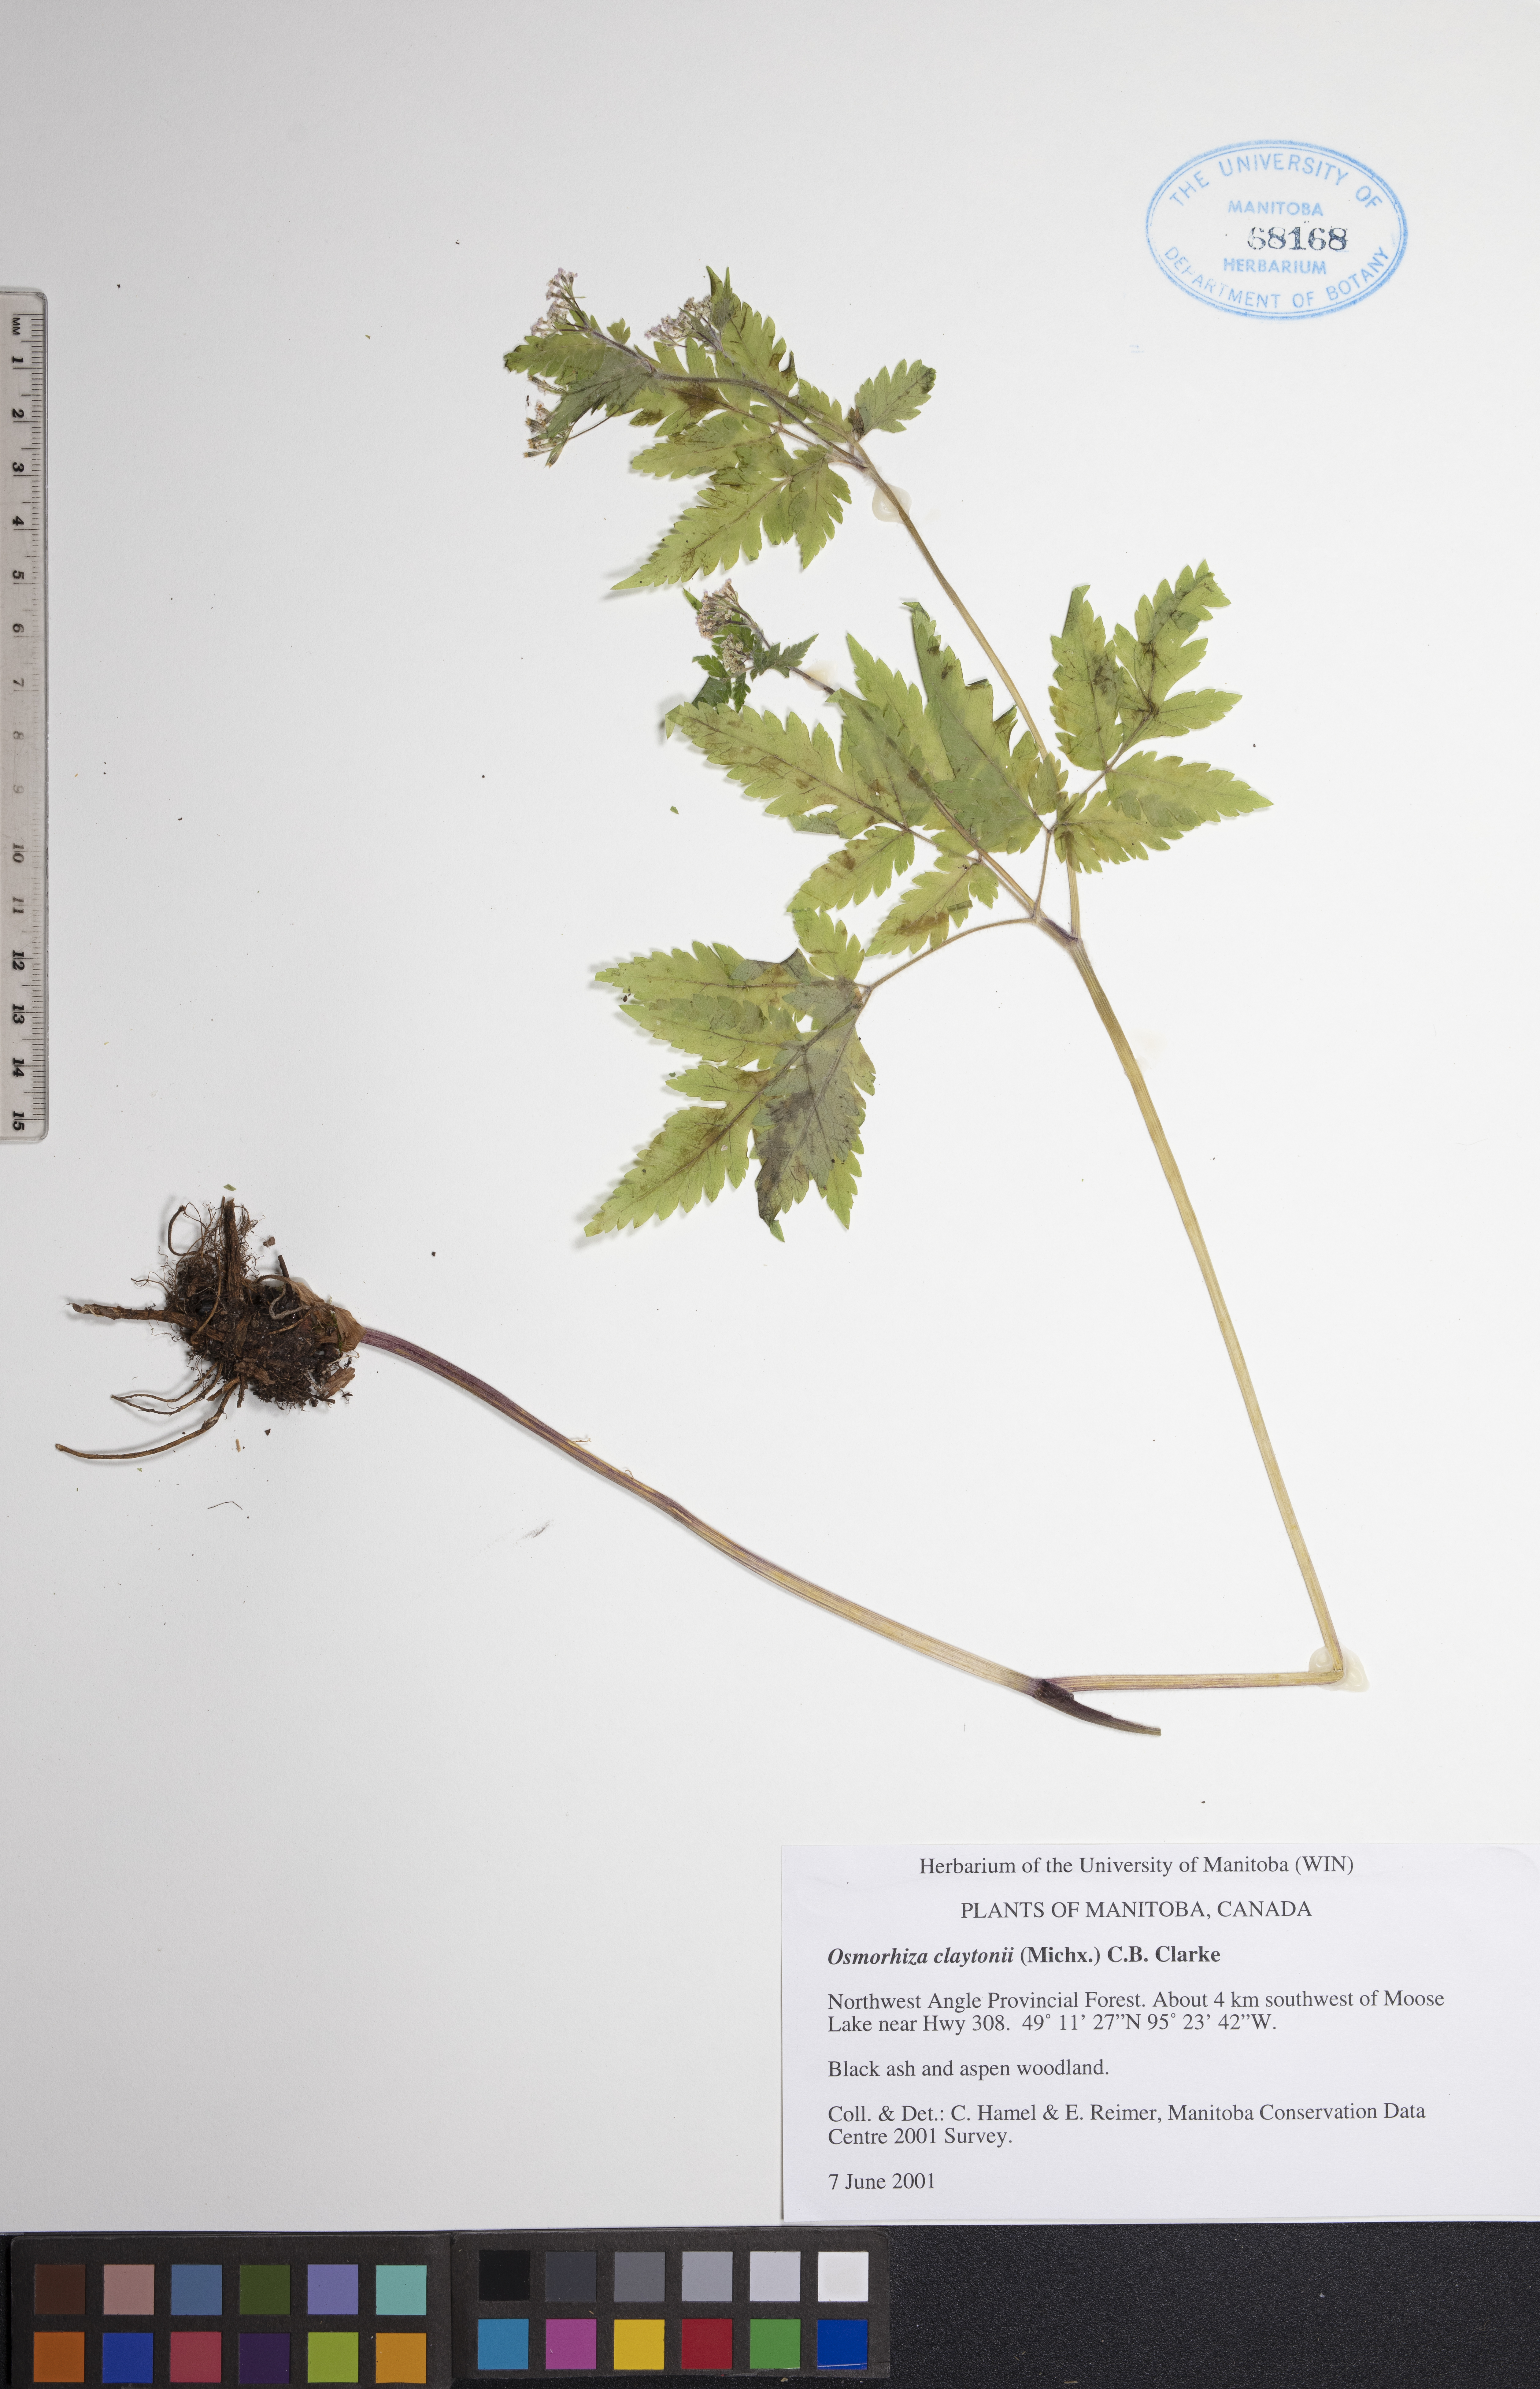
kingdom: Plantae
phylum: Tracheophyta
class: Magnoliopsida
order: Apiales
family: Apiaceae
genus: Osmorhiza
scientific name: Osmorhiza claytonii
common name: Hairy sweet cicely
